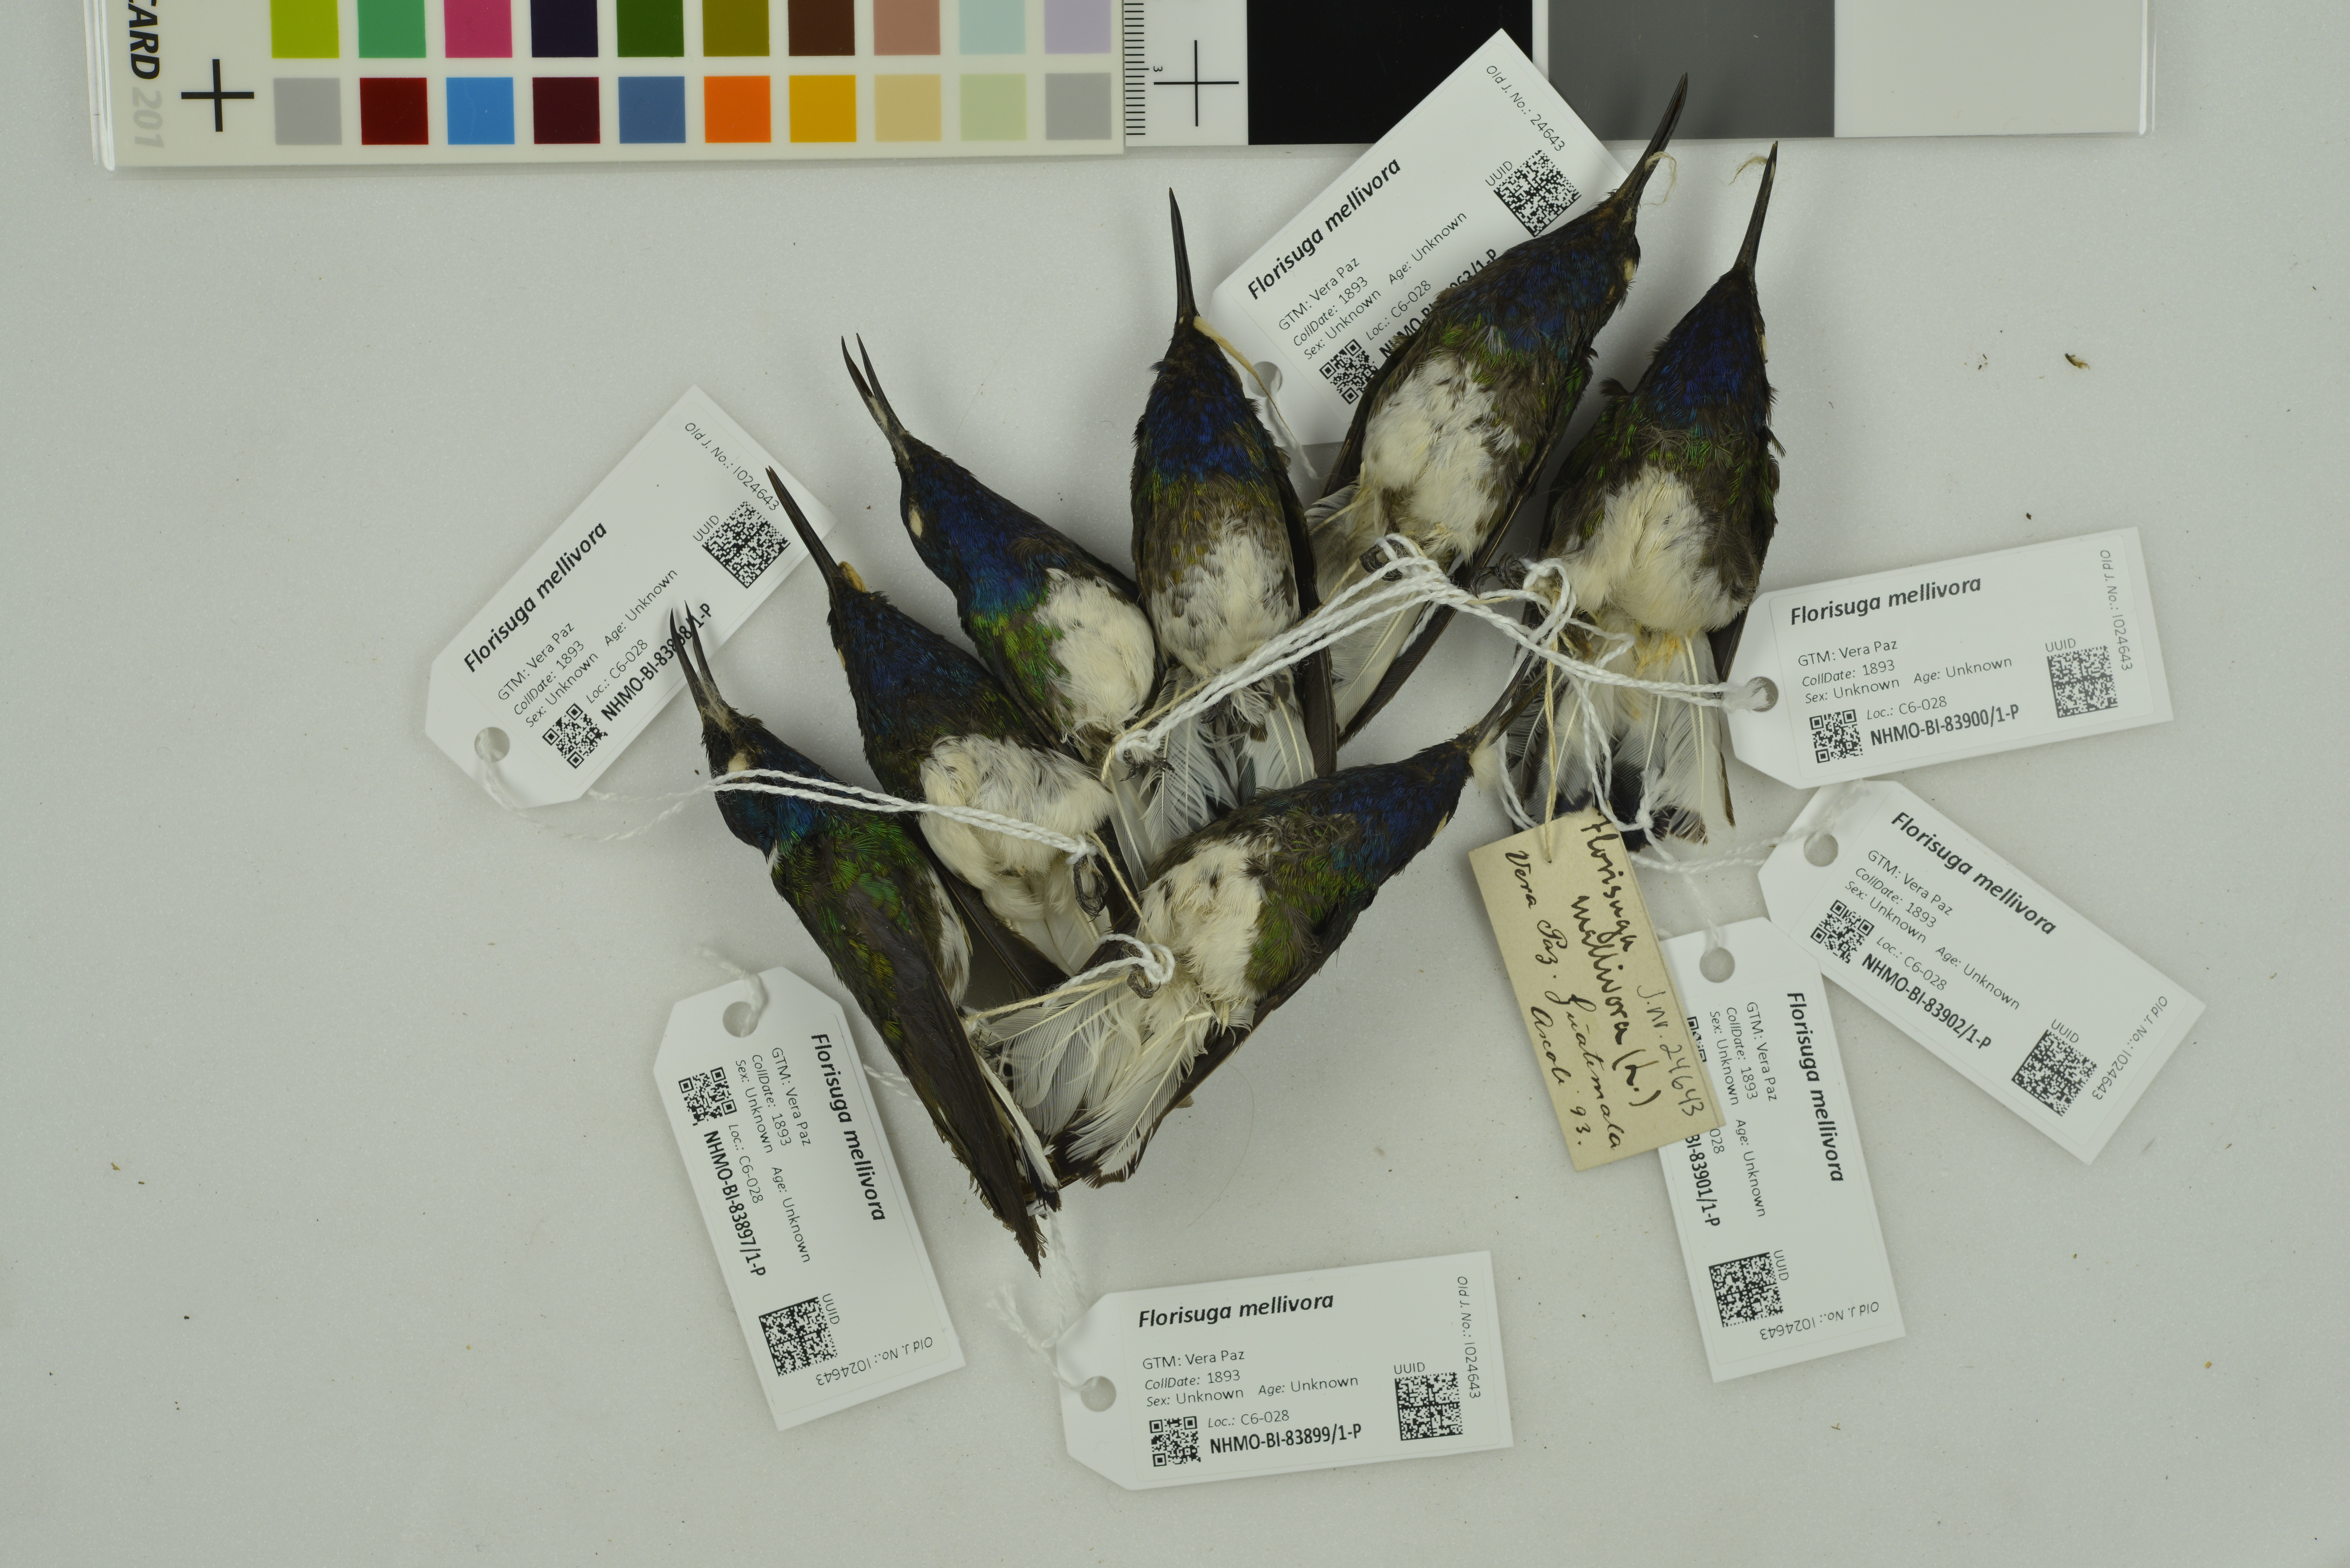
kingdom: Animalia
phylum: Chordata
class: Aves
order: Apodiformes
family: Trochilidae
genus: Florisuga
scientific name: Florisuga mellivora
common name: White-necked jacobin
